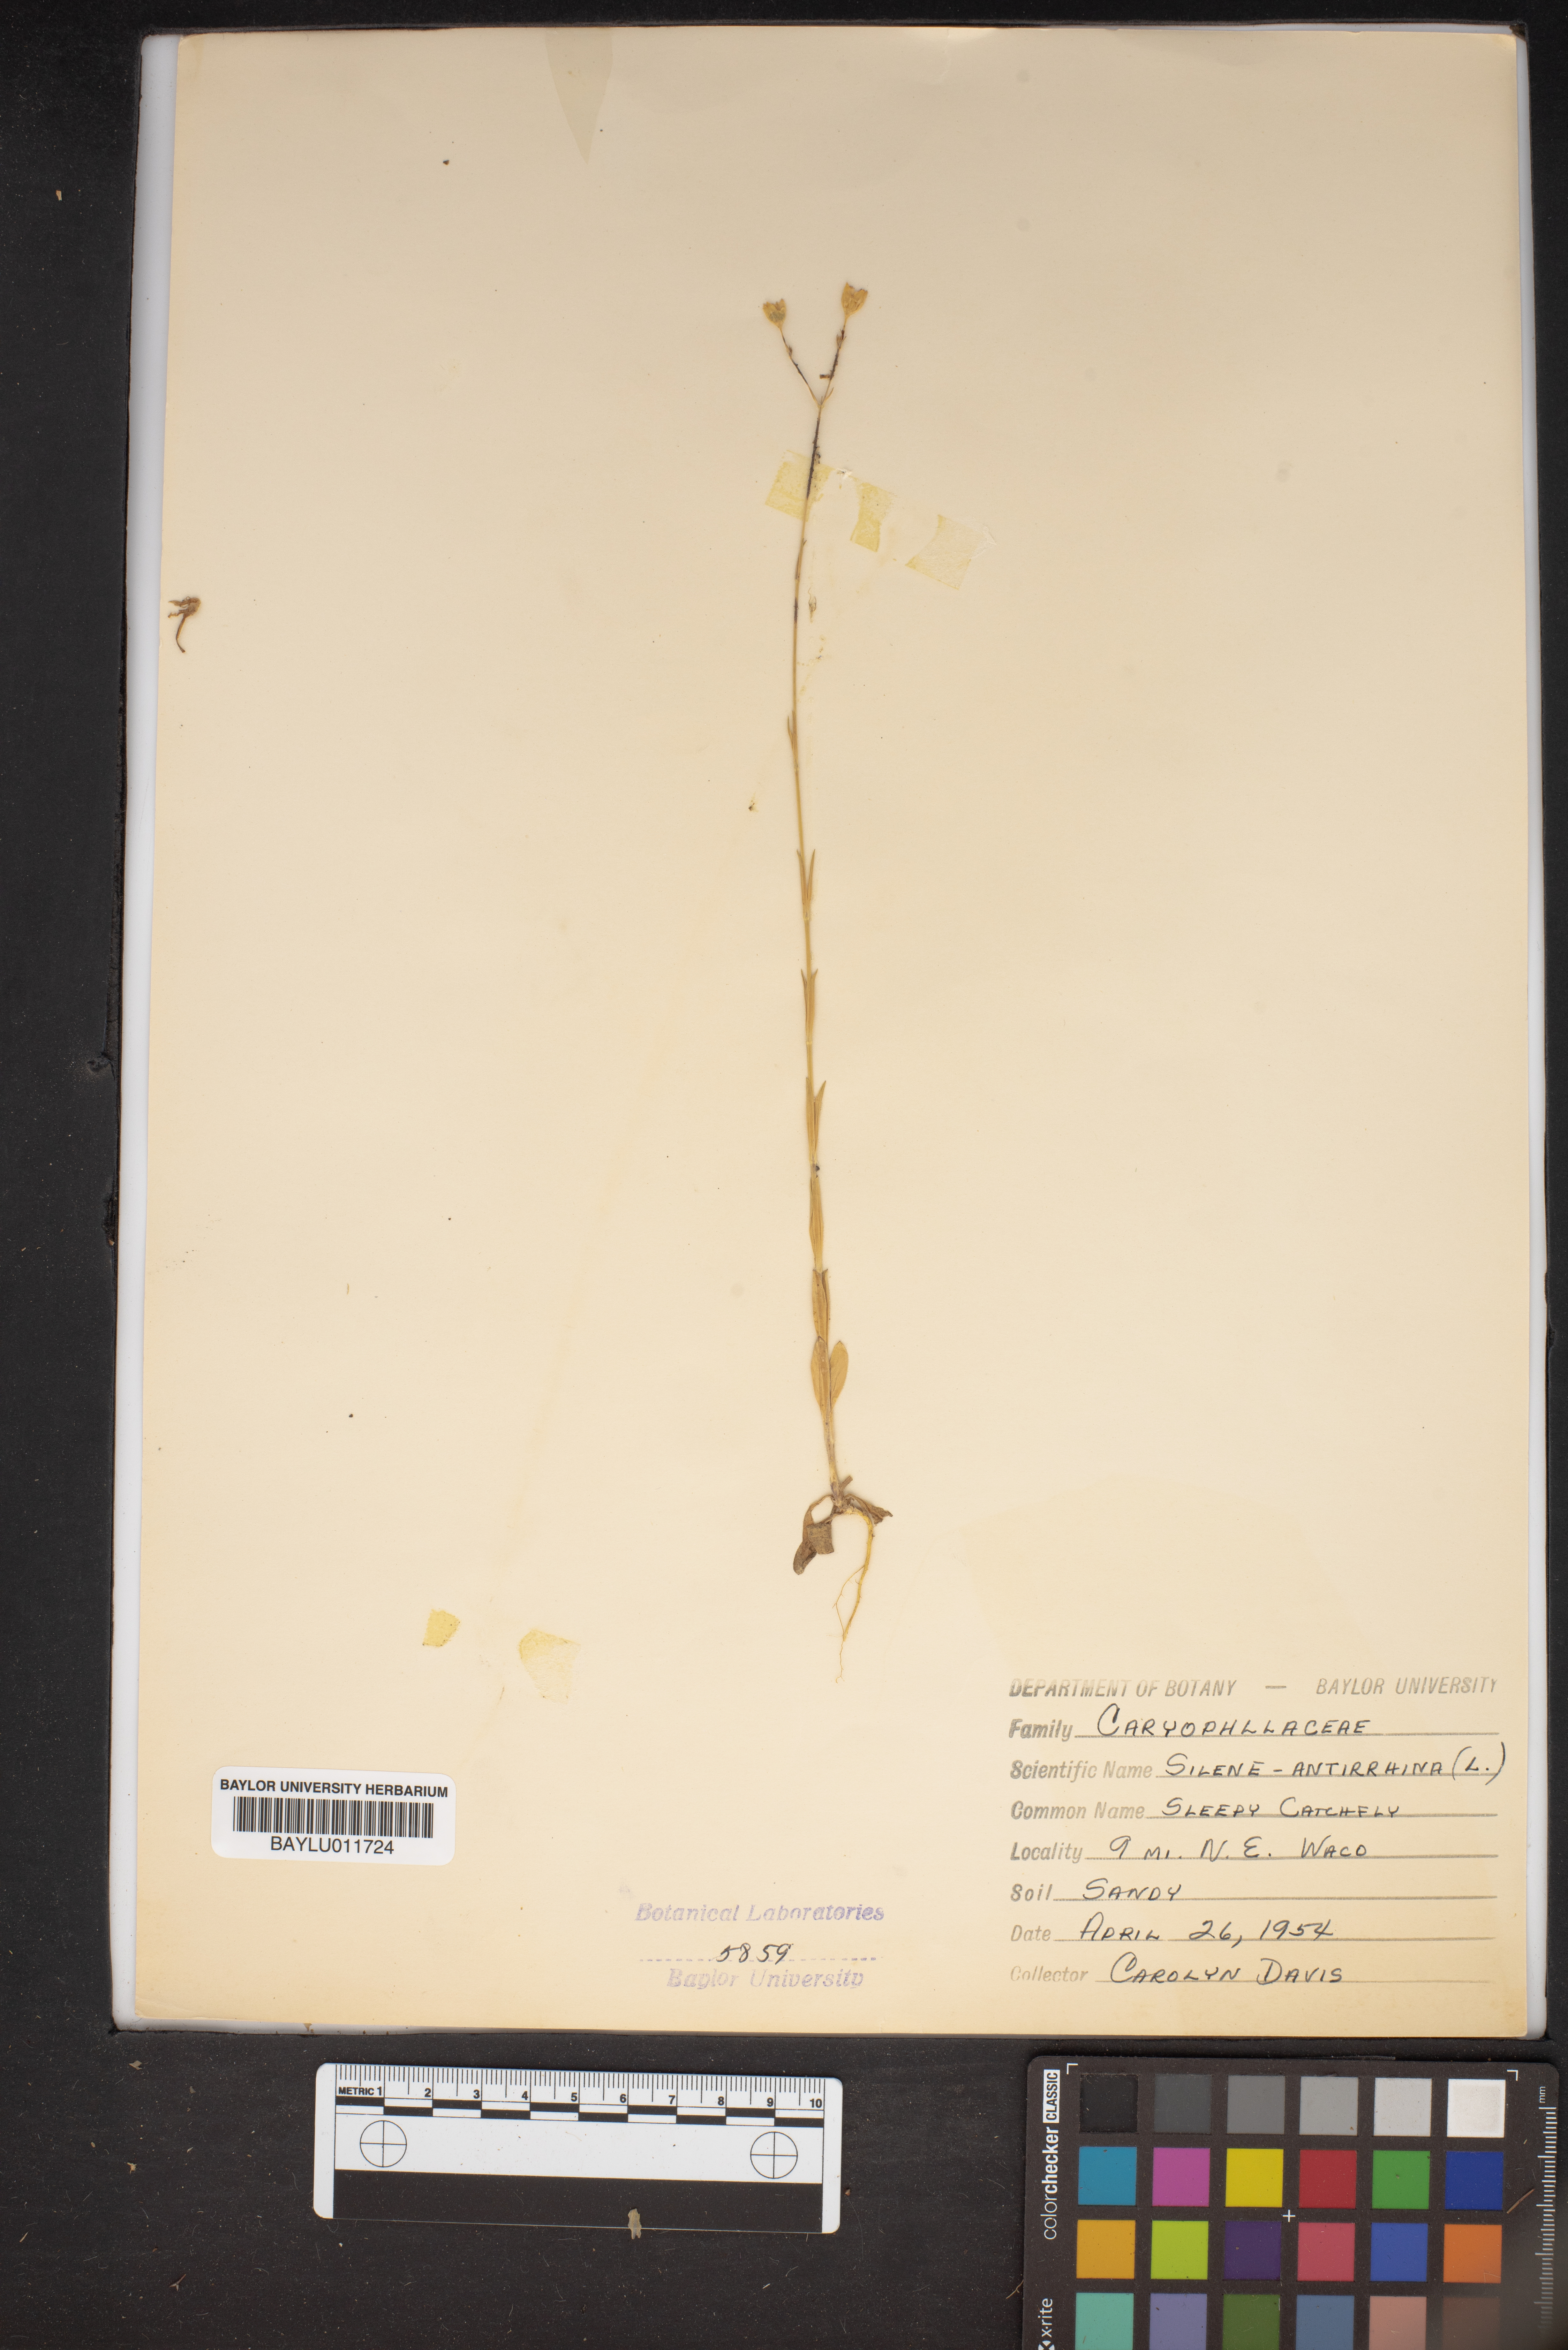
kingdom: Plantae
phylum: Tracheophyta
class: Magnoliopsida
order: Caryophyllales
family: Caryophyllaceae
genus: Silene
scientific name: Silene antirrhina
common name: Sleepy catchfly
